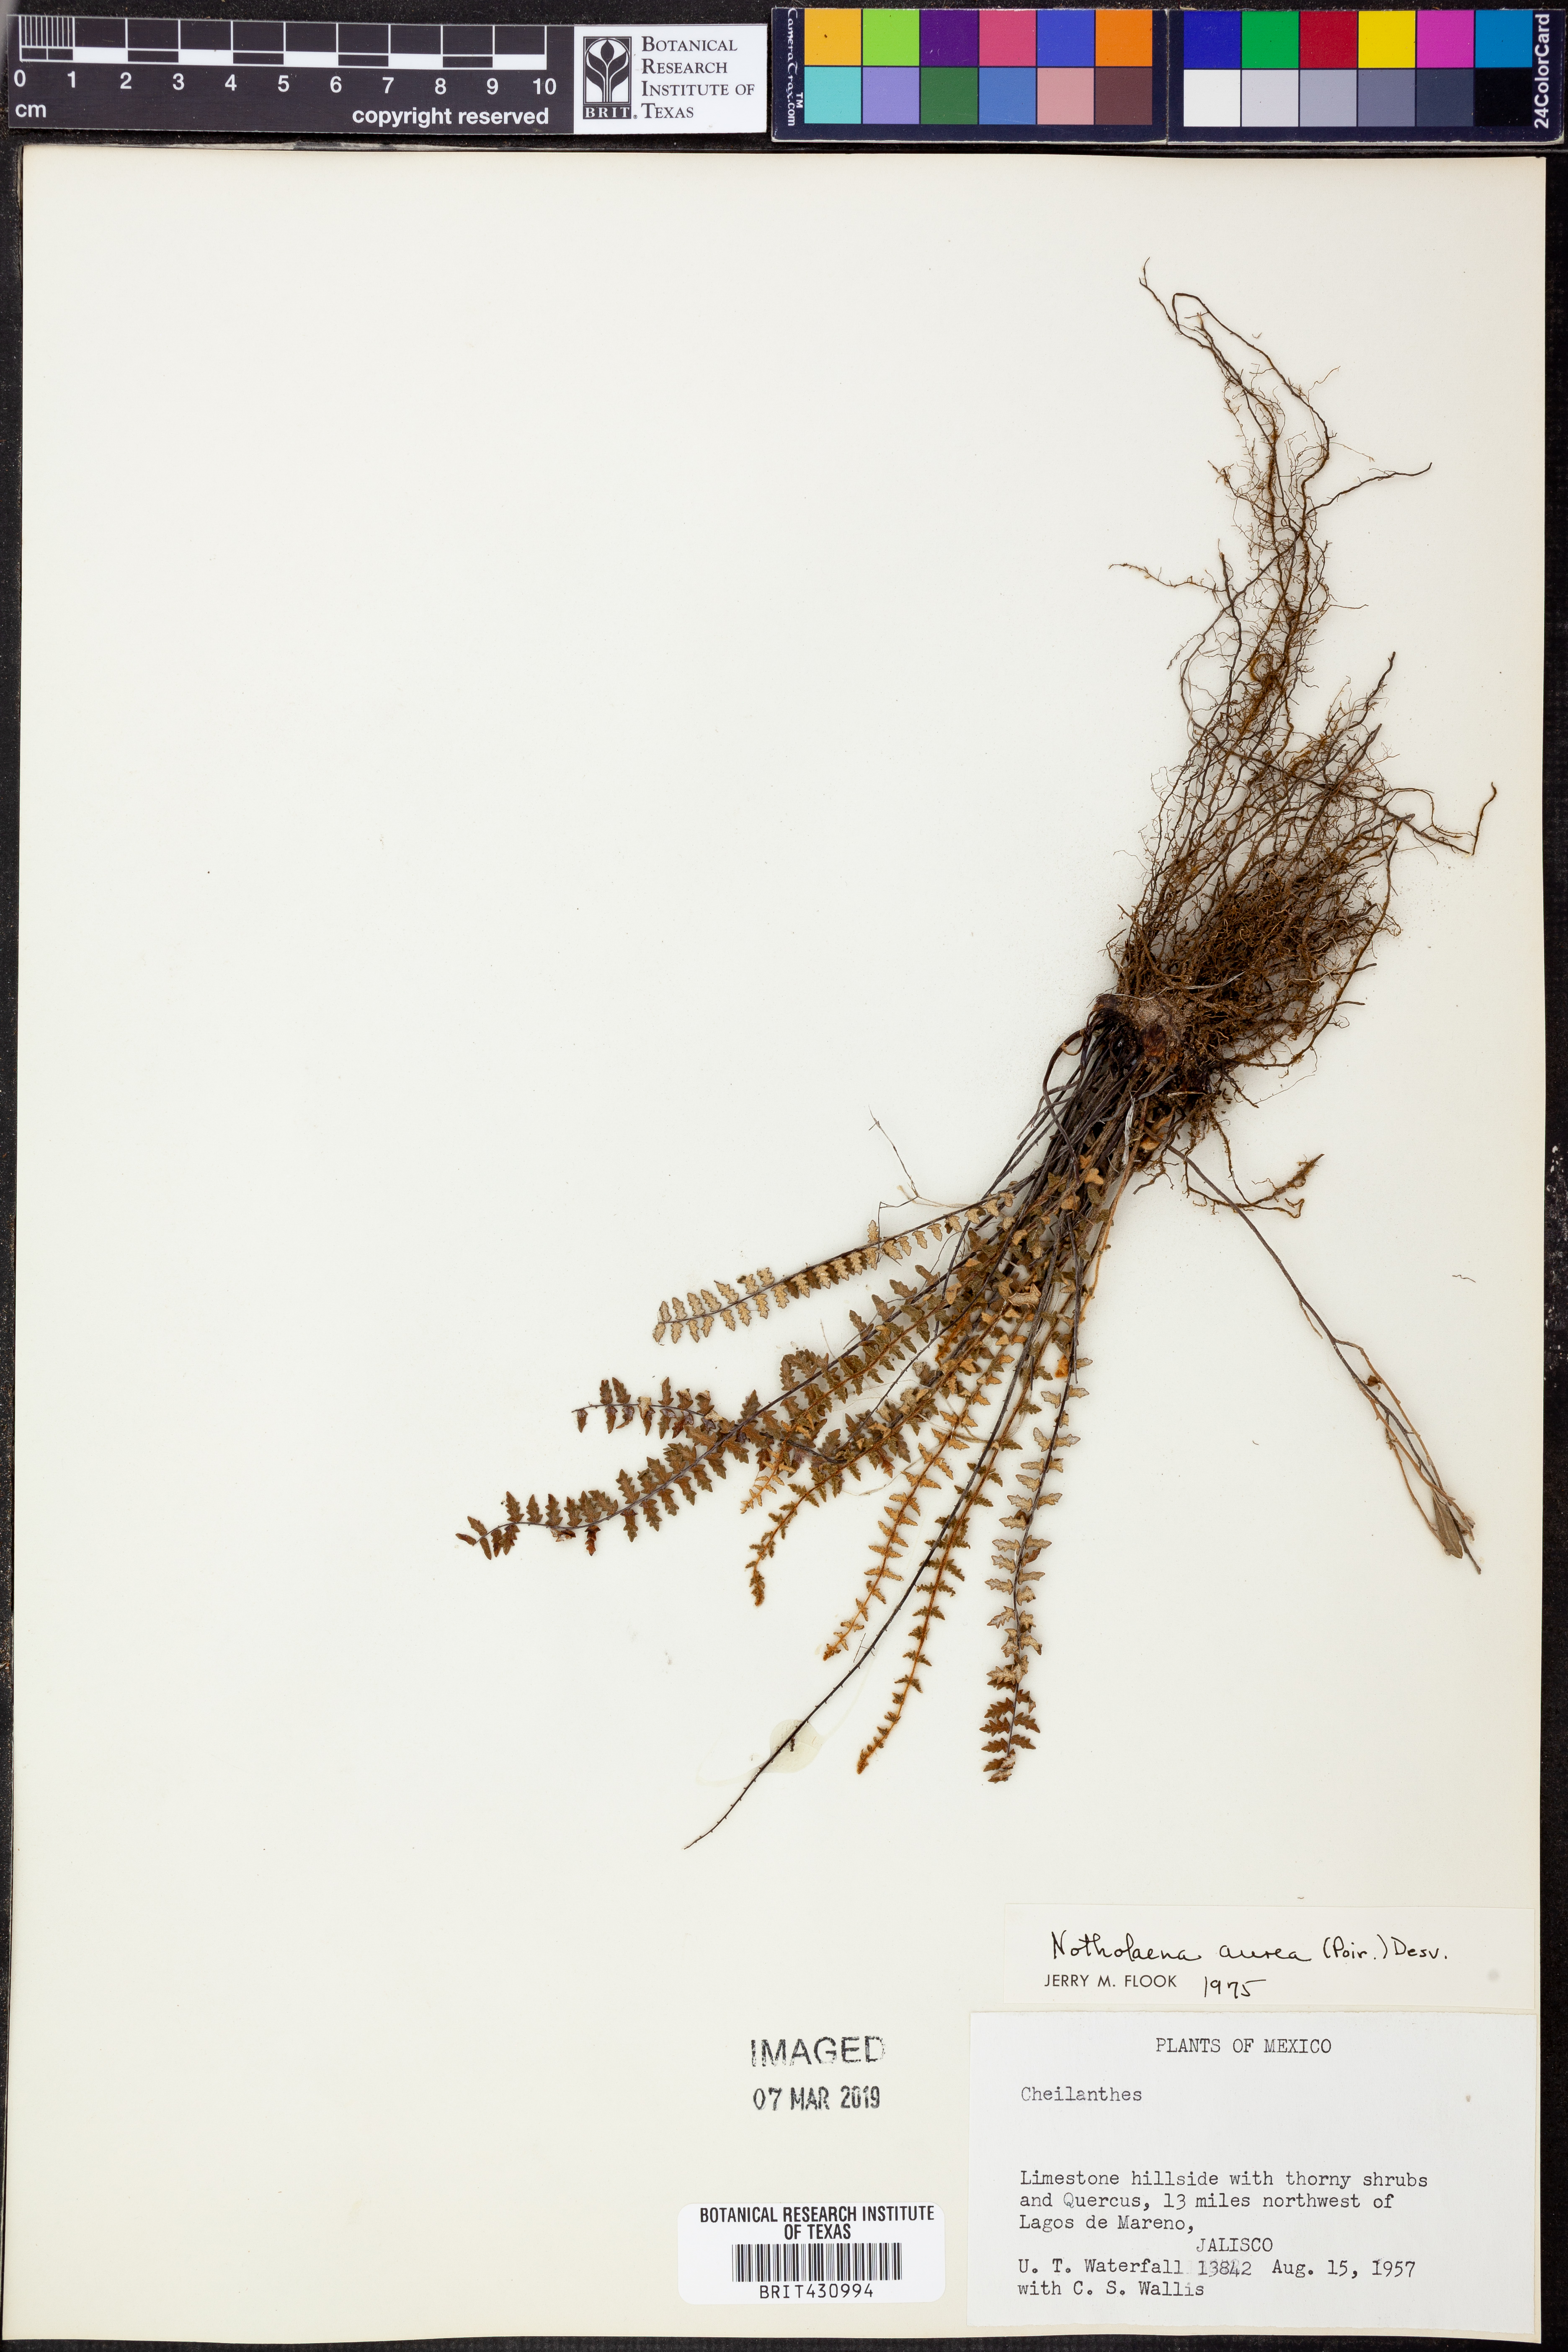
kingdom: Plantae
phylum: Tracheophyta
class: Polypodiopsida
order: Polypodiales
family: Pteridaceae
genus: Myriopteris
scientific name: Myriopteris aurea
